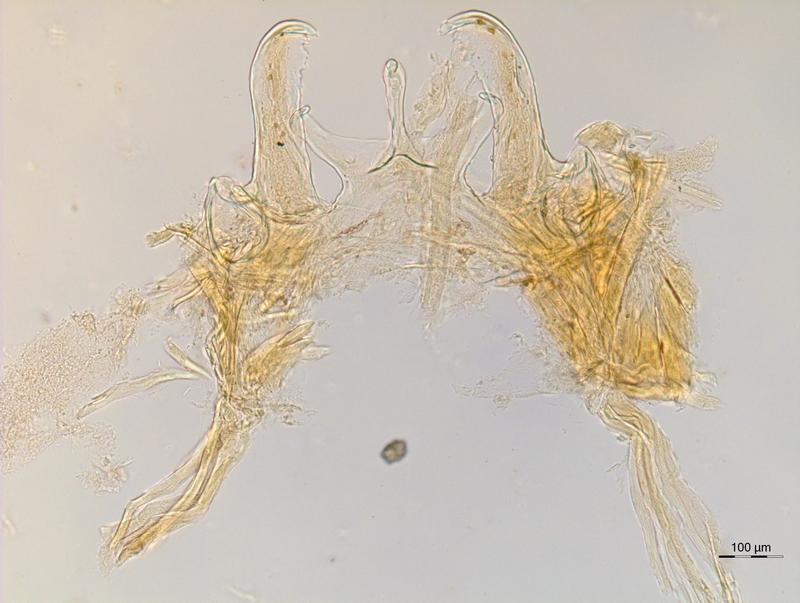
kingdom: Animalia
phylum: Arthropoda
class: Diplopoda
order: Chordeumatida
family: Anthogonidae
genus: Haasia
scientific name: Haasia tridentis
